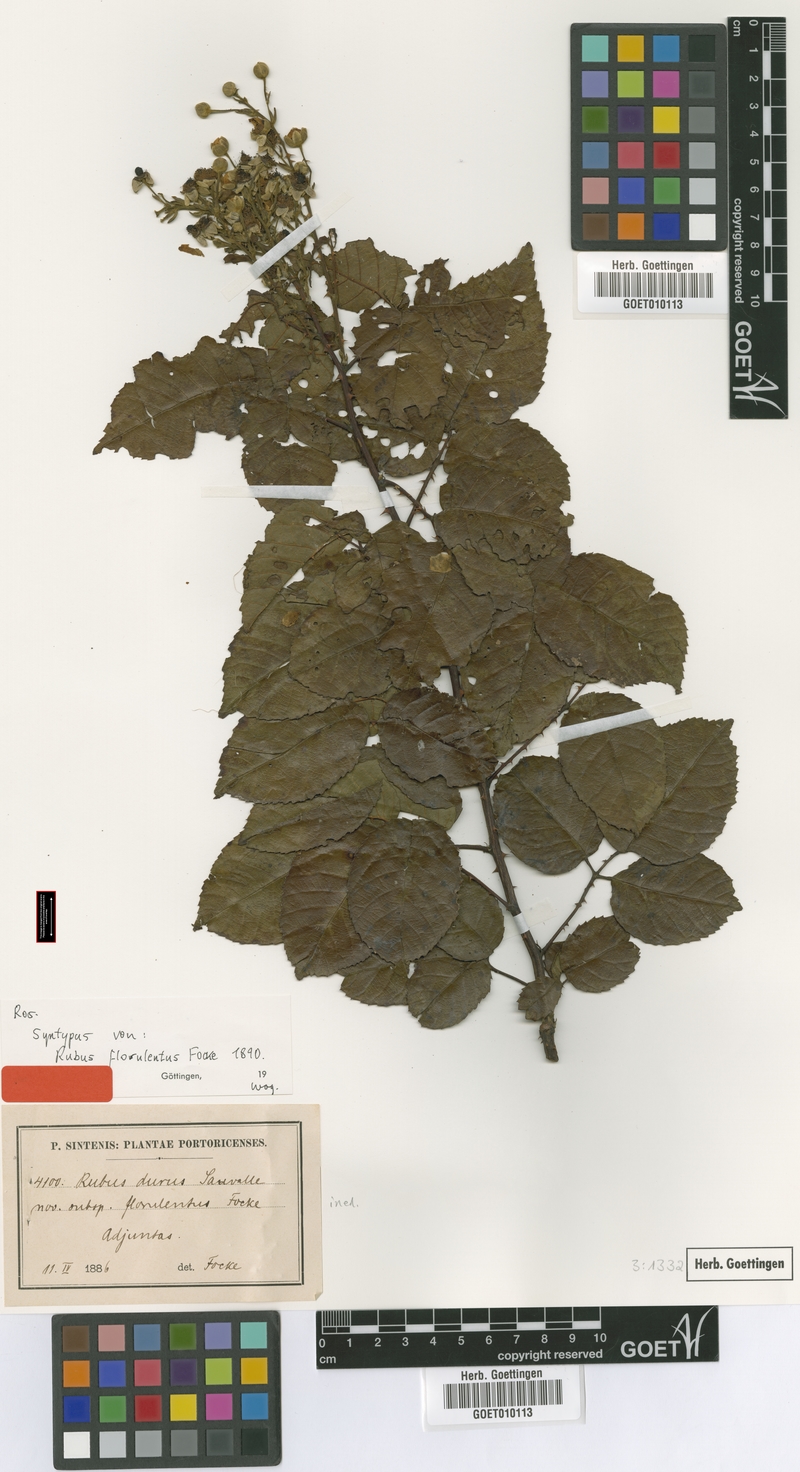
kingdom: Plantae
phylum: Tracheophyta
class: Magnoliopsida
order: Rosales
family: Rosaceae
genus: Rubus
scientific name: Rubus florulentus
